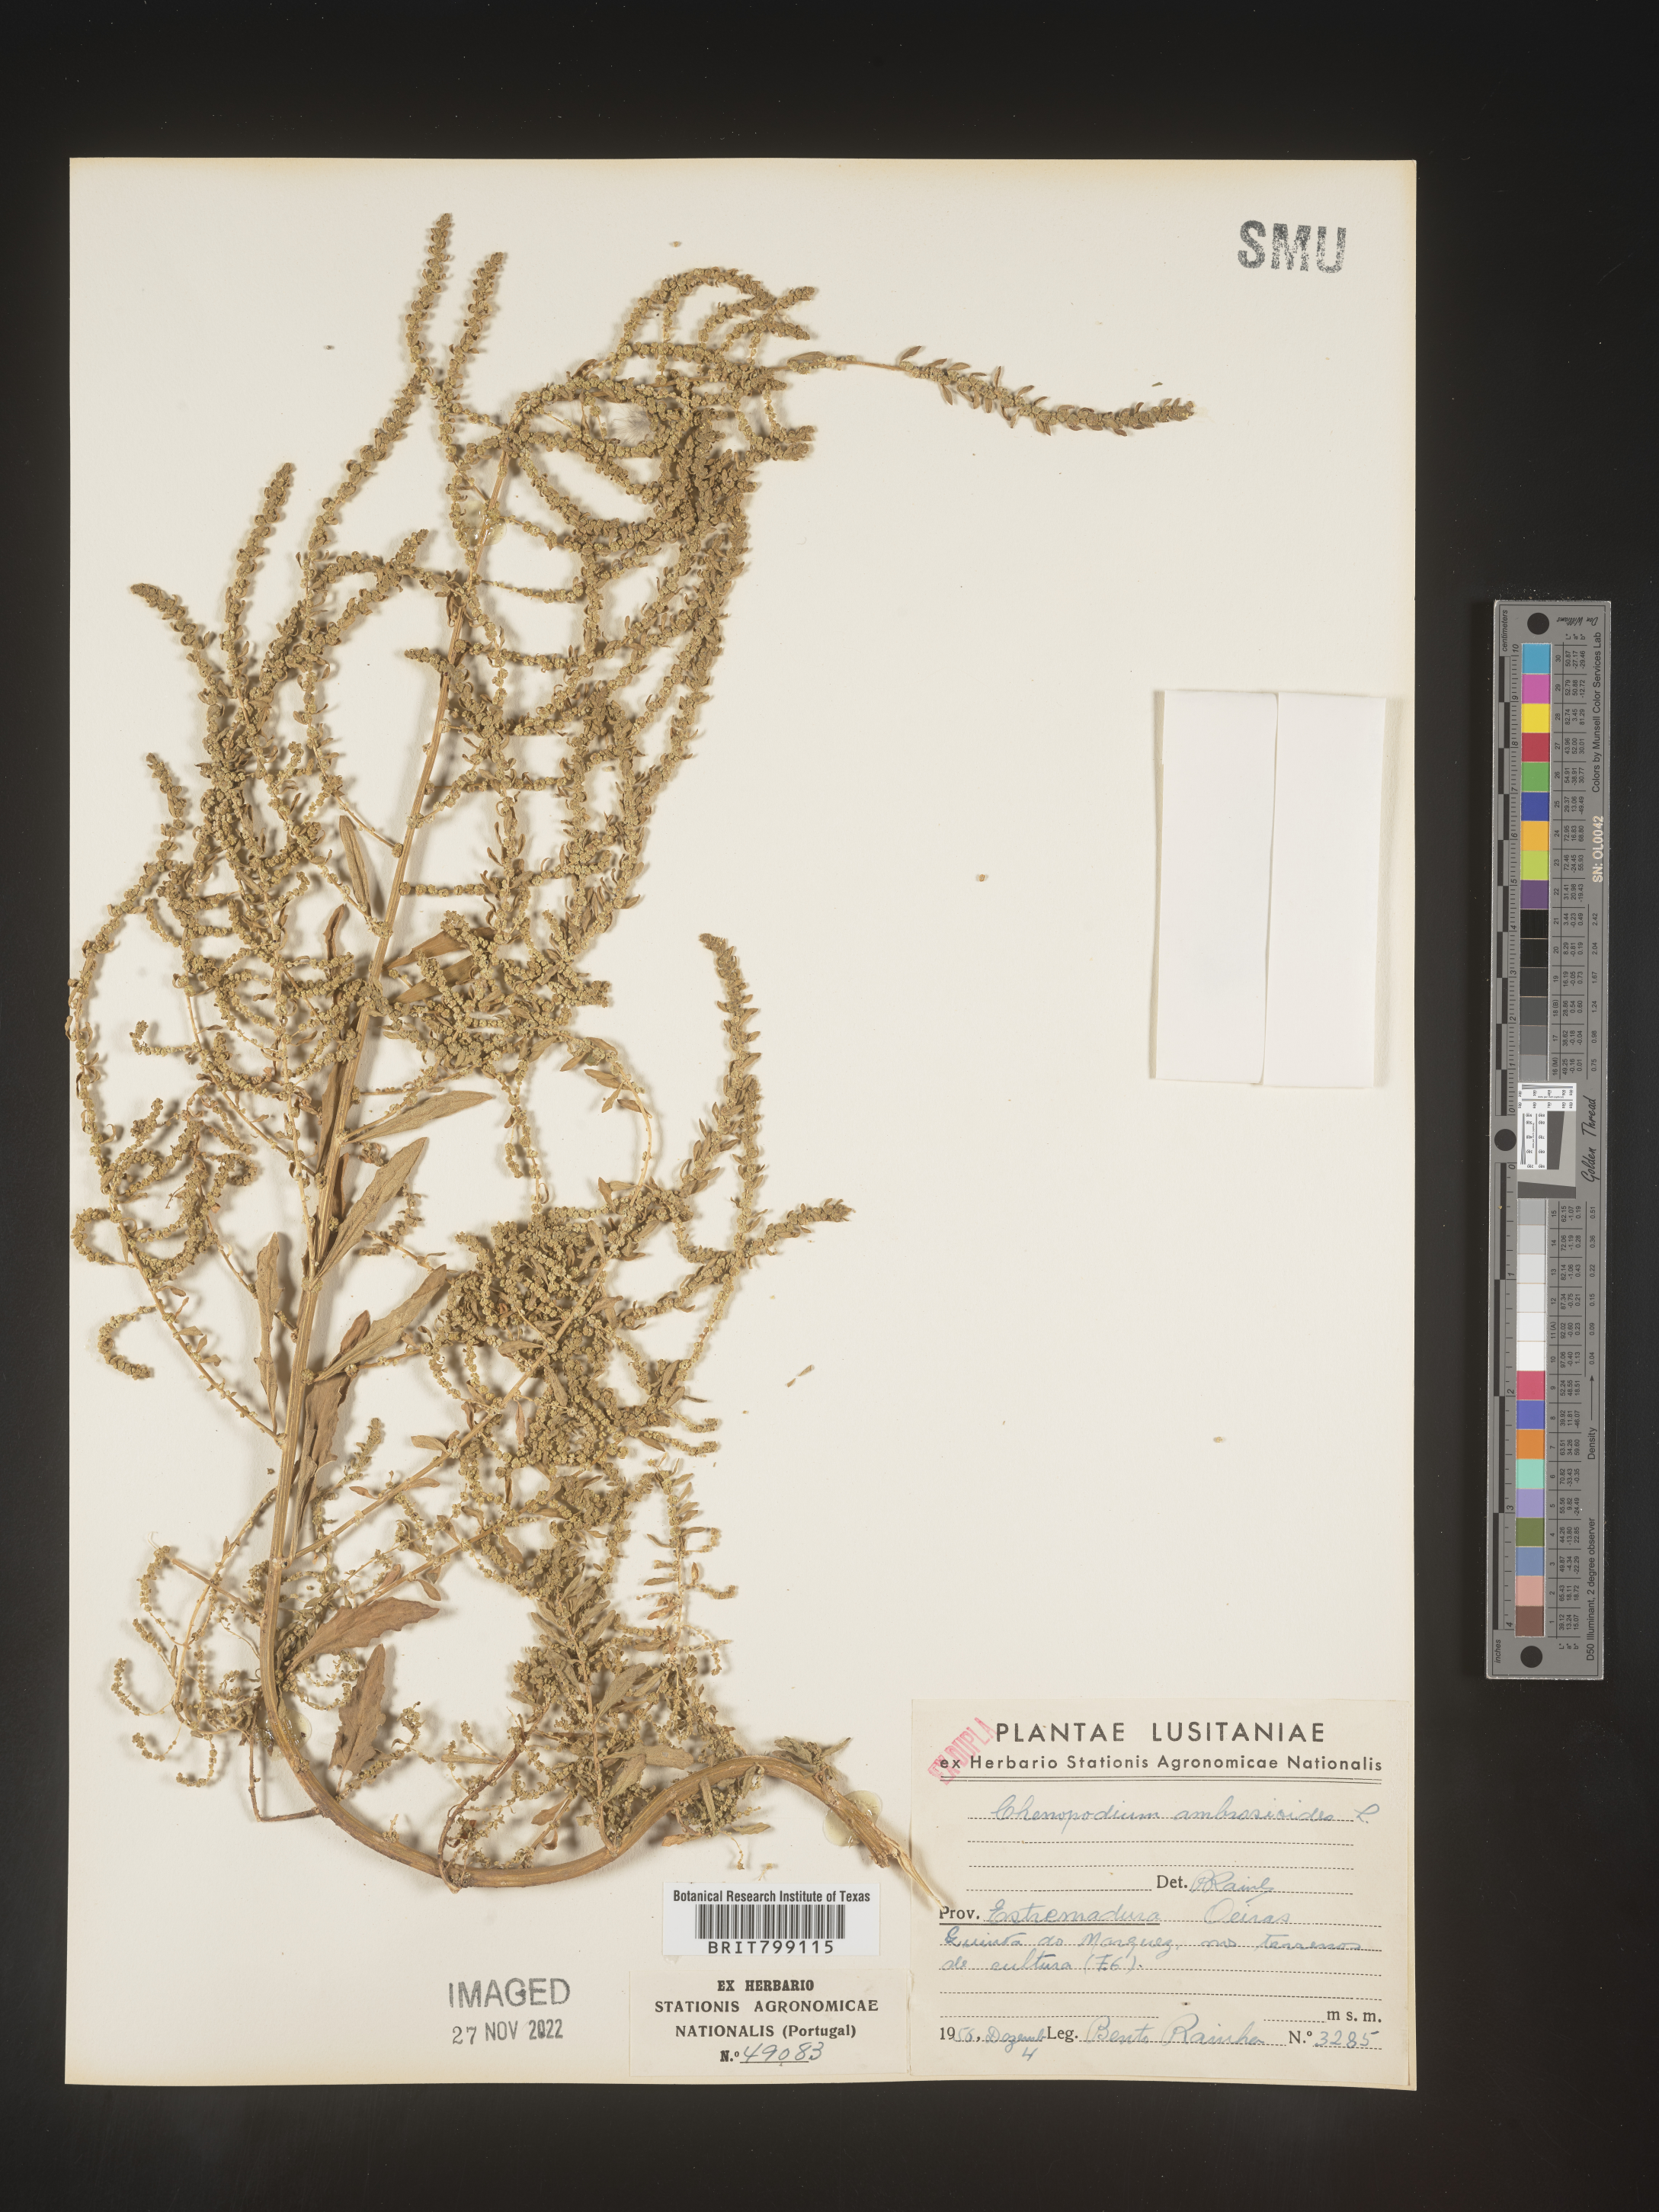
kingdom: Plantae
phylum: Tracheophyta
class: Magnoliopsida
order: Caryophyllales
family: Amaranthaceae
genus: Chenopodium
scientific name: Chenopodium
